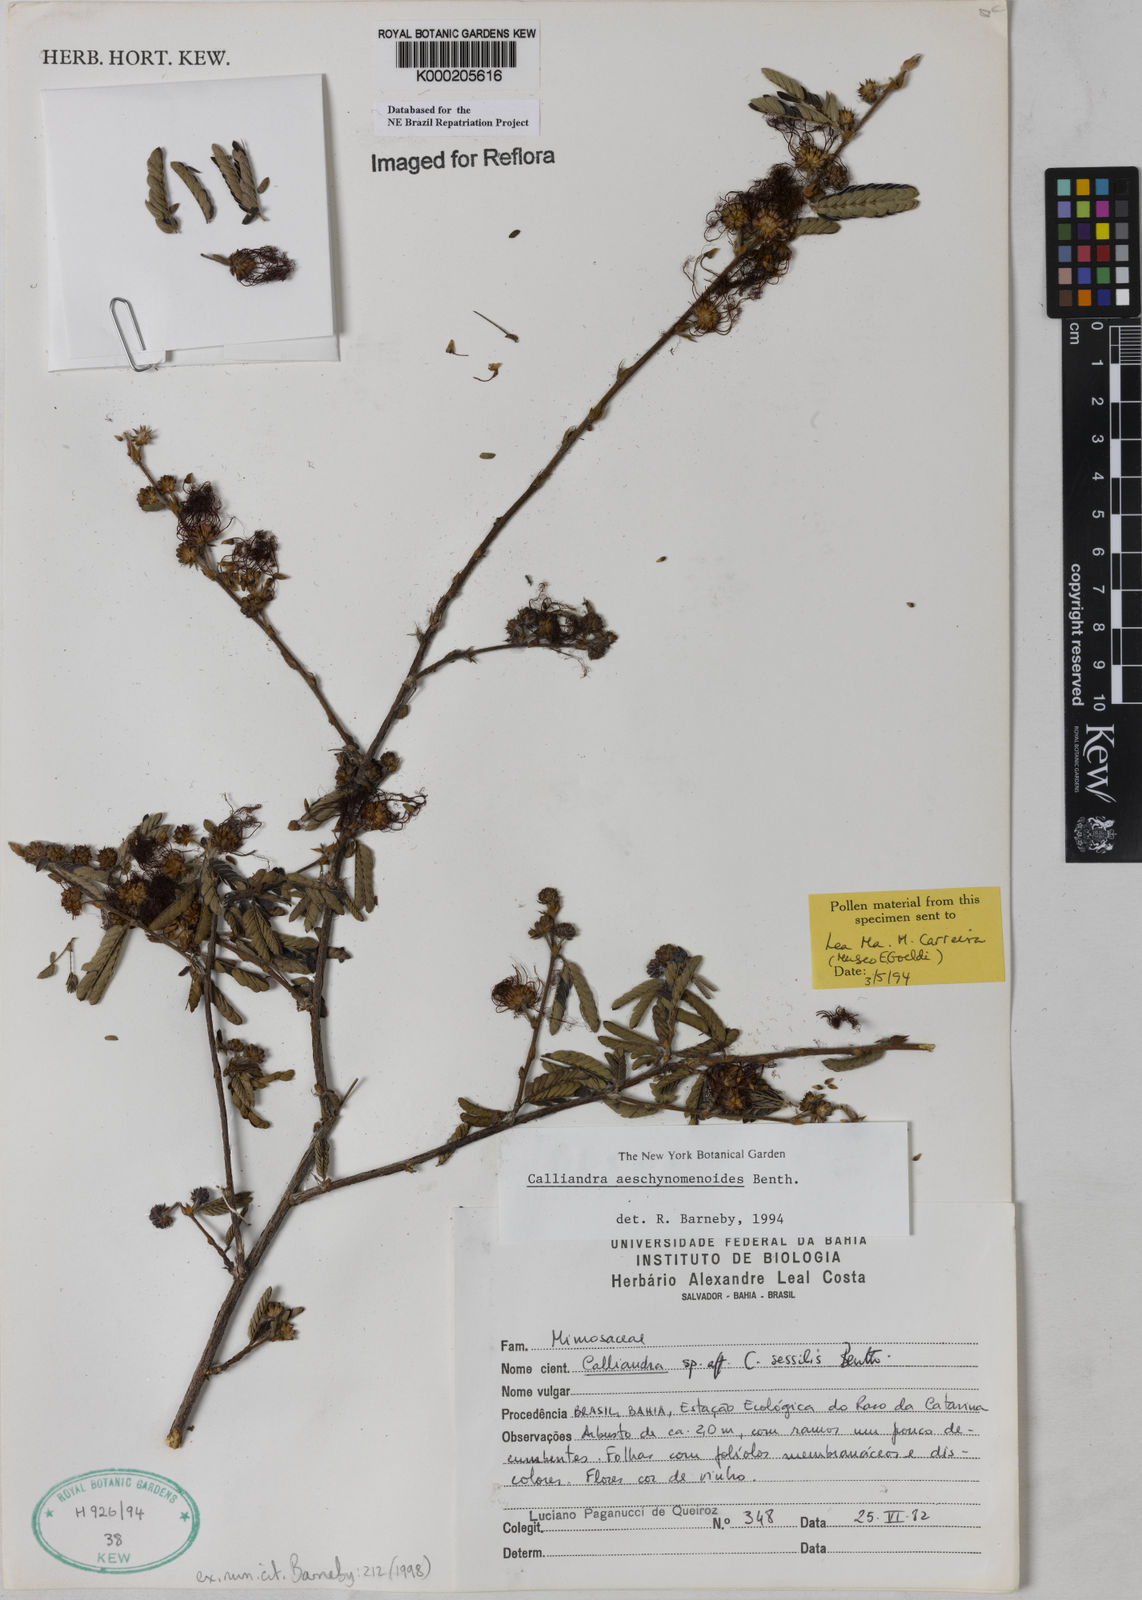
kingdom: Plantae
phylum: Tracheophyta
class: Magnoliopsida
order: Fabales
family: Fabaceae
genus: Calliandra
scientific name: Calliandra aeschynomenoides
